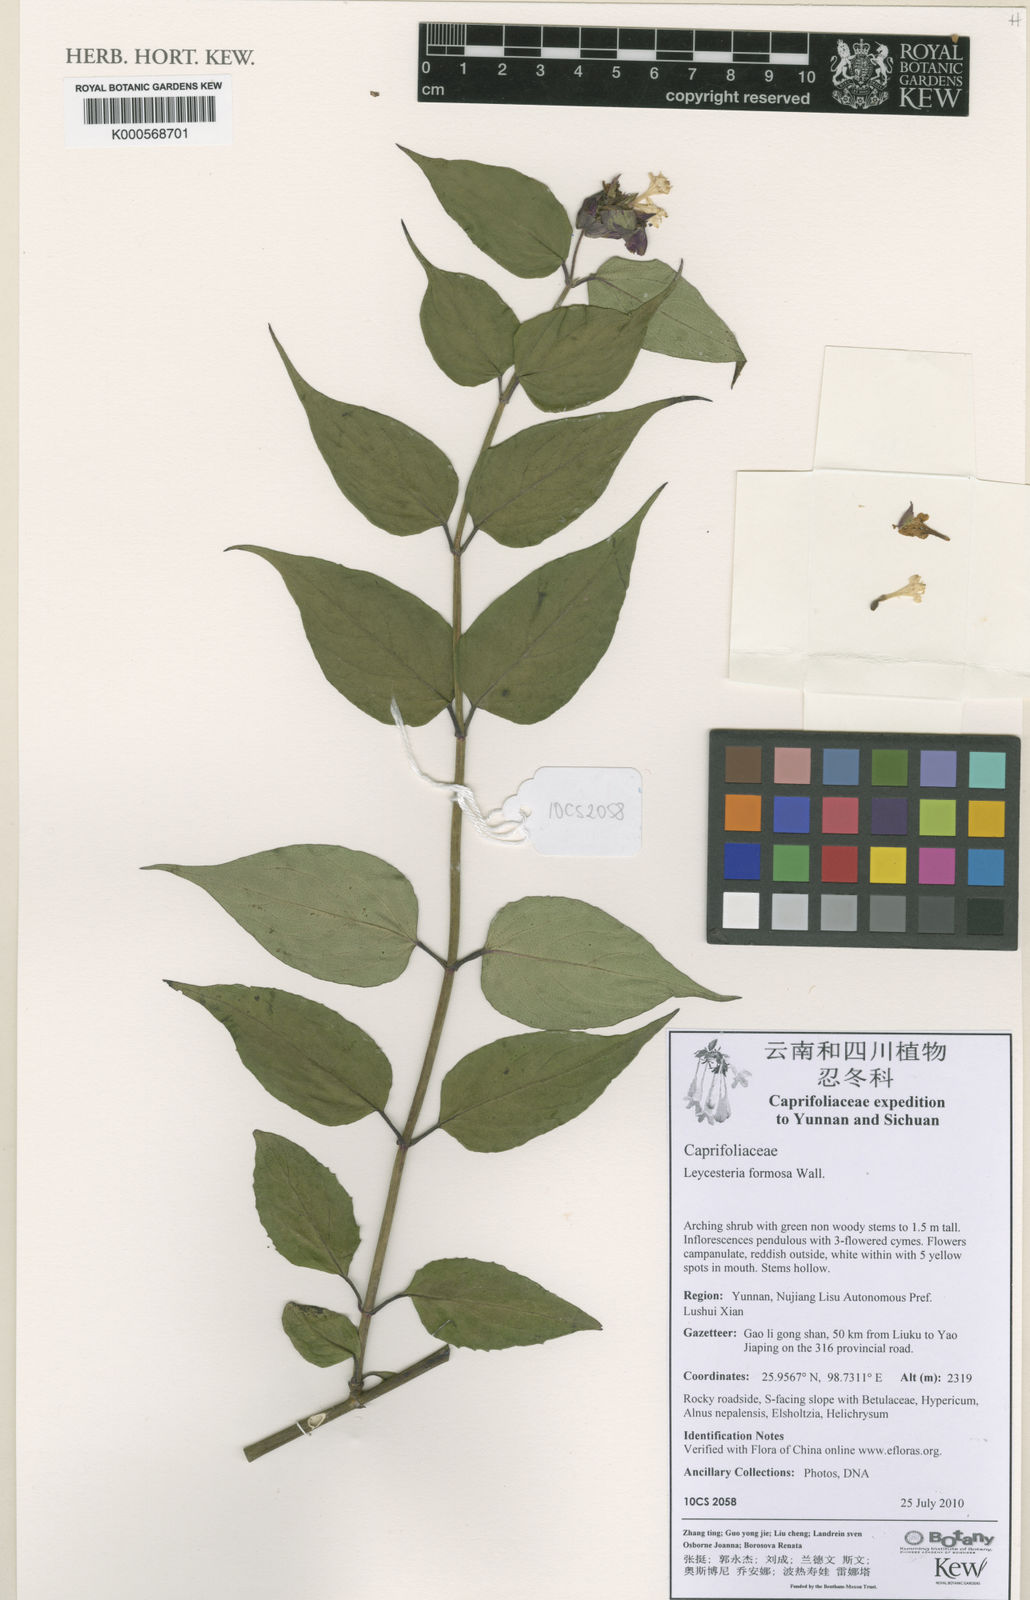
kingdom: Plantae
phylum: Tracheophyta
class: Magnoliopsida
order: Dipsacales
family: Caprifoliaceae
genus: Leycesteria
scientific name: Leycesteria formosa
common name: Himalayan honeysuckle
